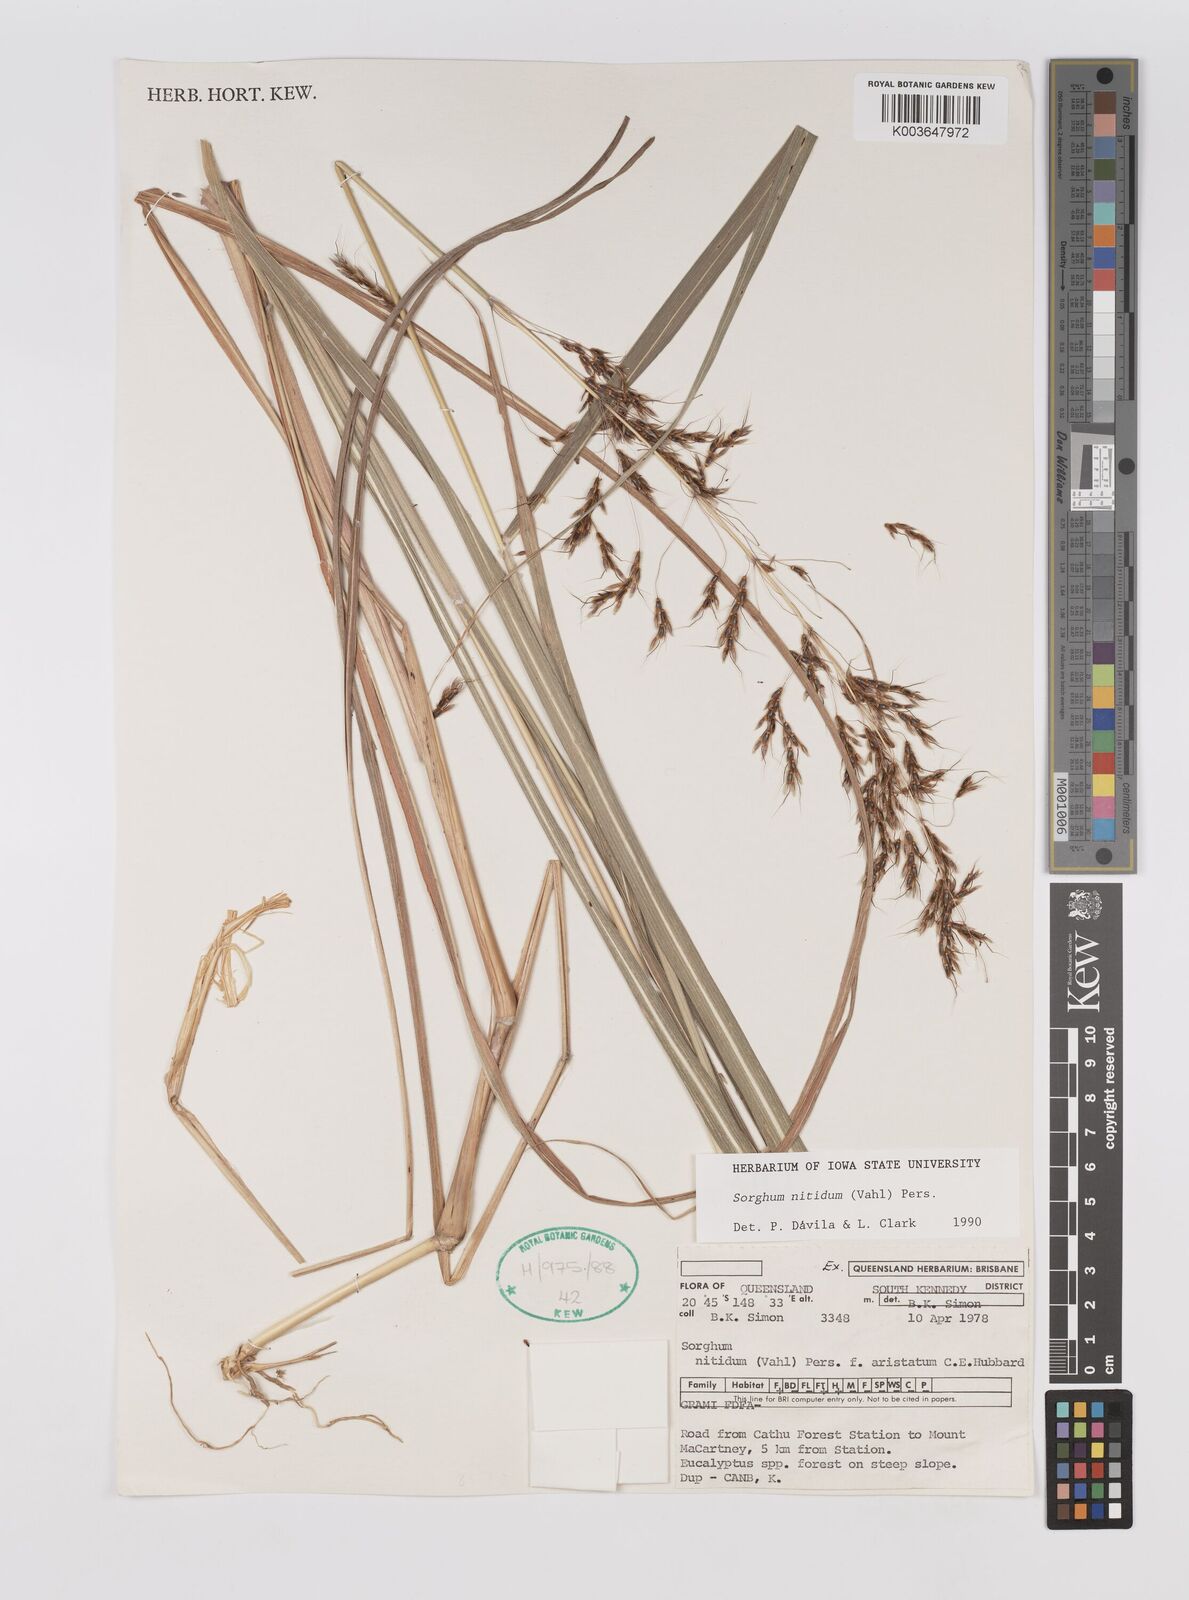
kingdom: Plantae
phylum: Tracheophyta
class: Liliopsida
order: Poales
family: Poaceae
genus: Sorghum
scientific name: Sorghum nitidum
